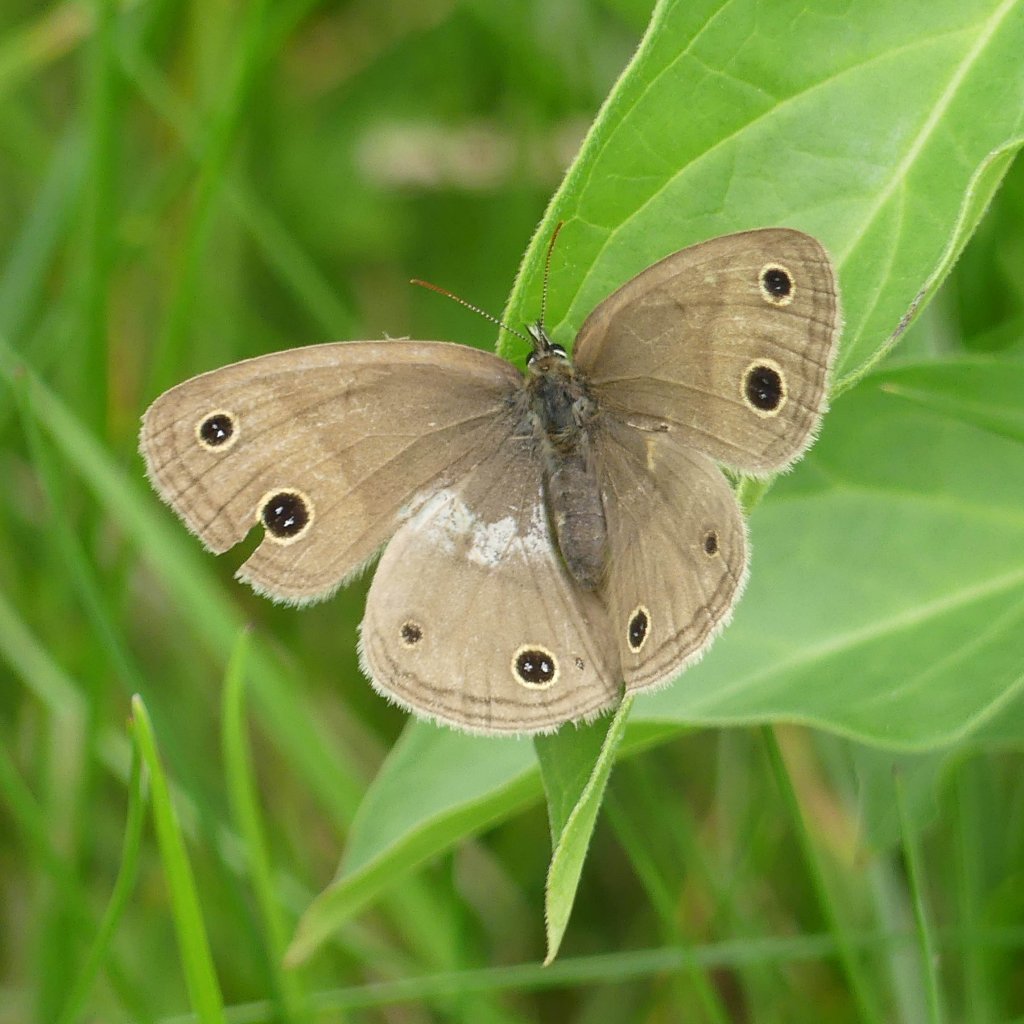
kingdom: Animalia
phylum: Arthropoda
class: Insecta
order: Lepidoptera
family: Nymphalidae
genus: Euptychia
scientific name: Euptychia cymela
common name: Little Wood Satyr
